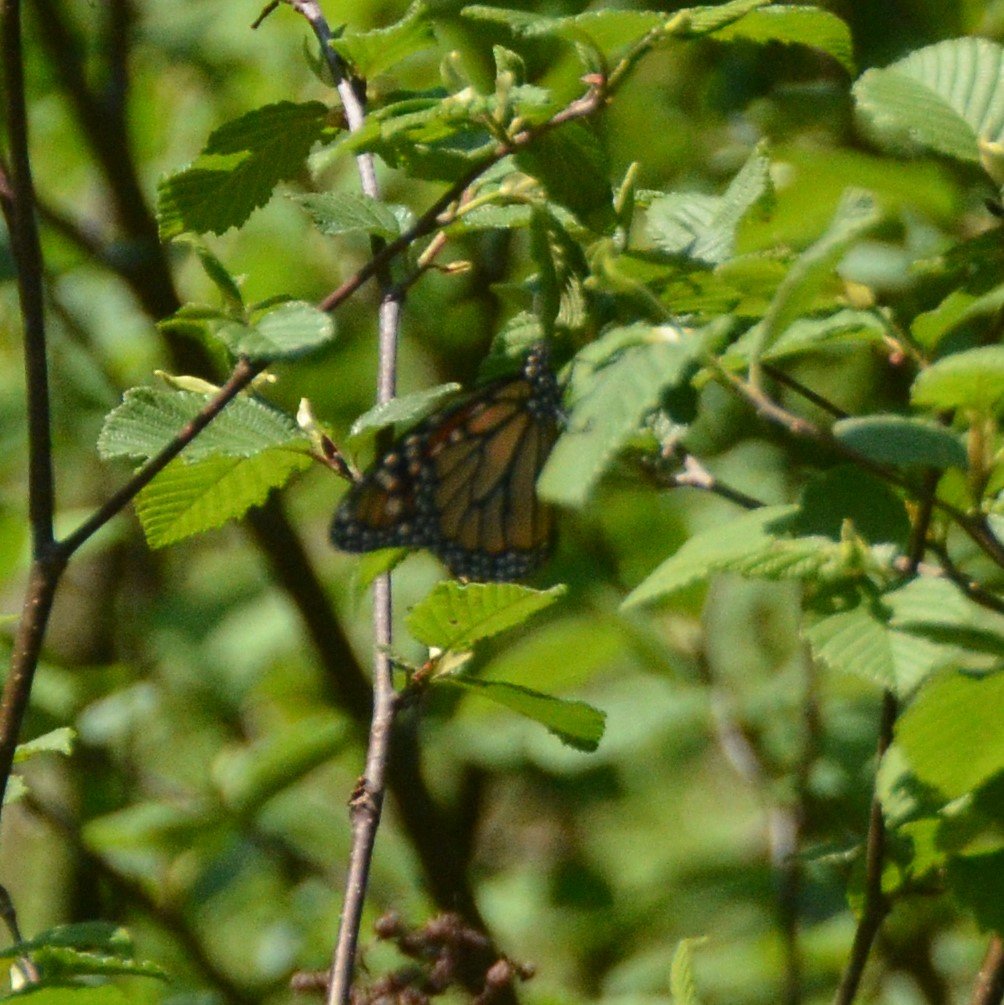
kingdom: Animalia
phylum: Arthropoda
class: Insecta
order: Lepidoptera
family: Nymphalidae
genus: Danaus
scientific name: Danaus plexippus
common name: Monarch
